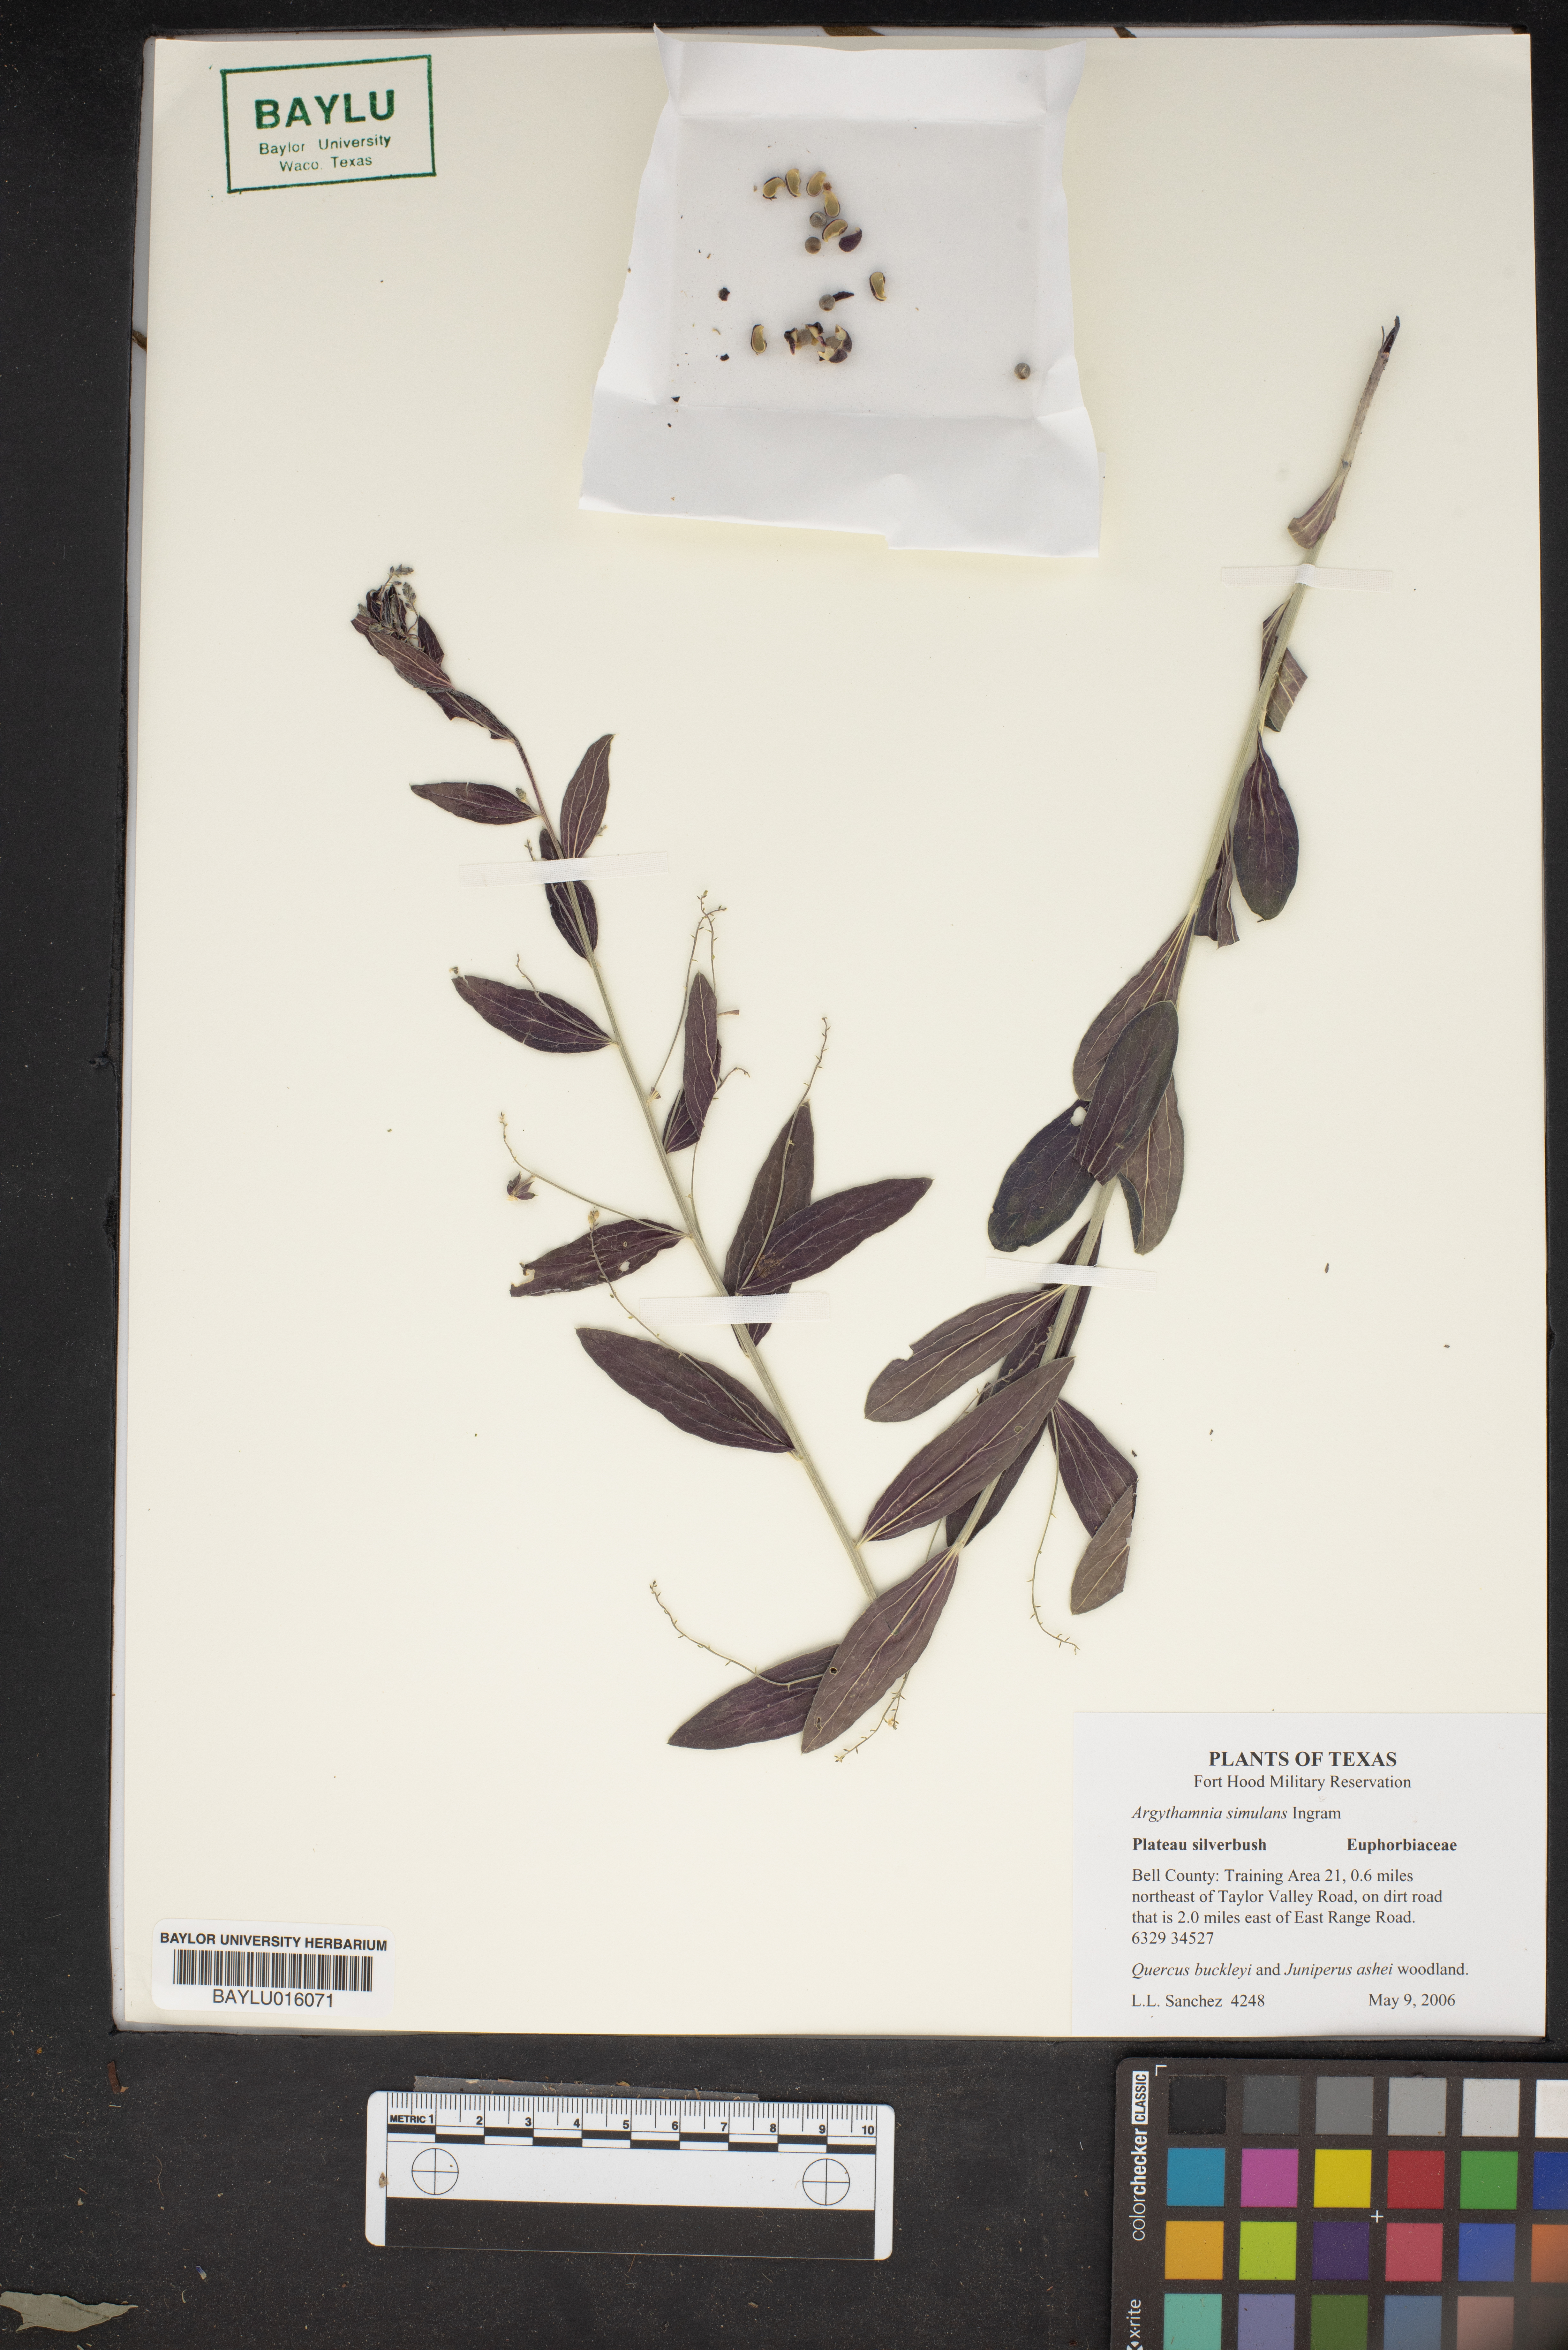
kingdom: Plantae
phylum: Tracheophyta
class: Magnoliopsida
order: Malpighiales
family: Euphorbiaceae
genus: Ditaxis
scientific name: Ditaxis simulans
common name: Plateau silverbush
